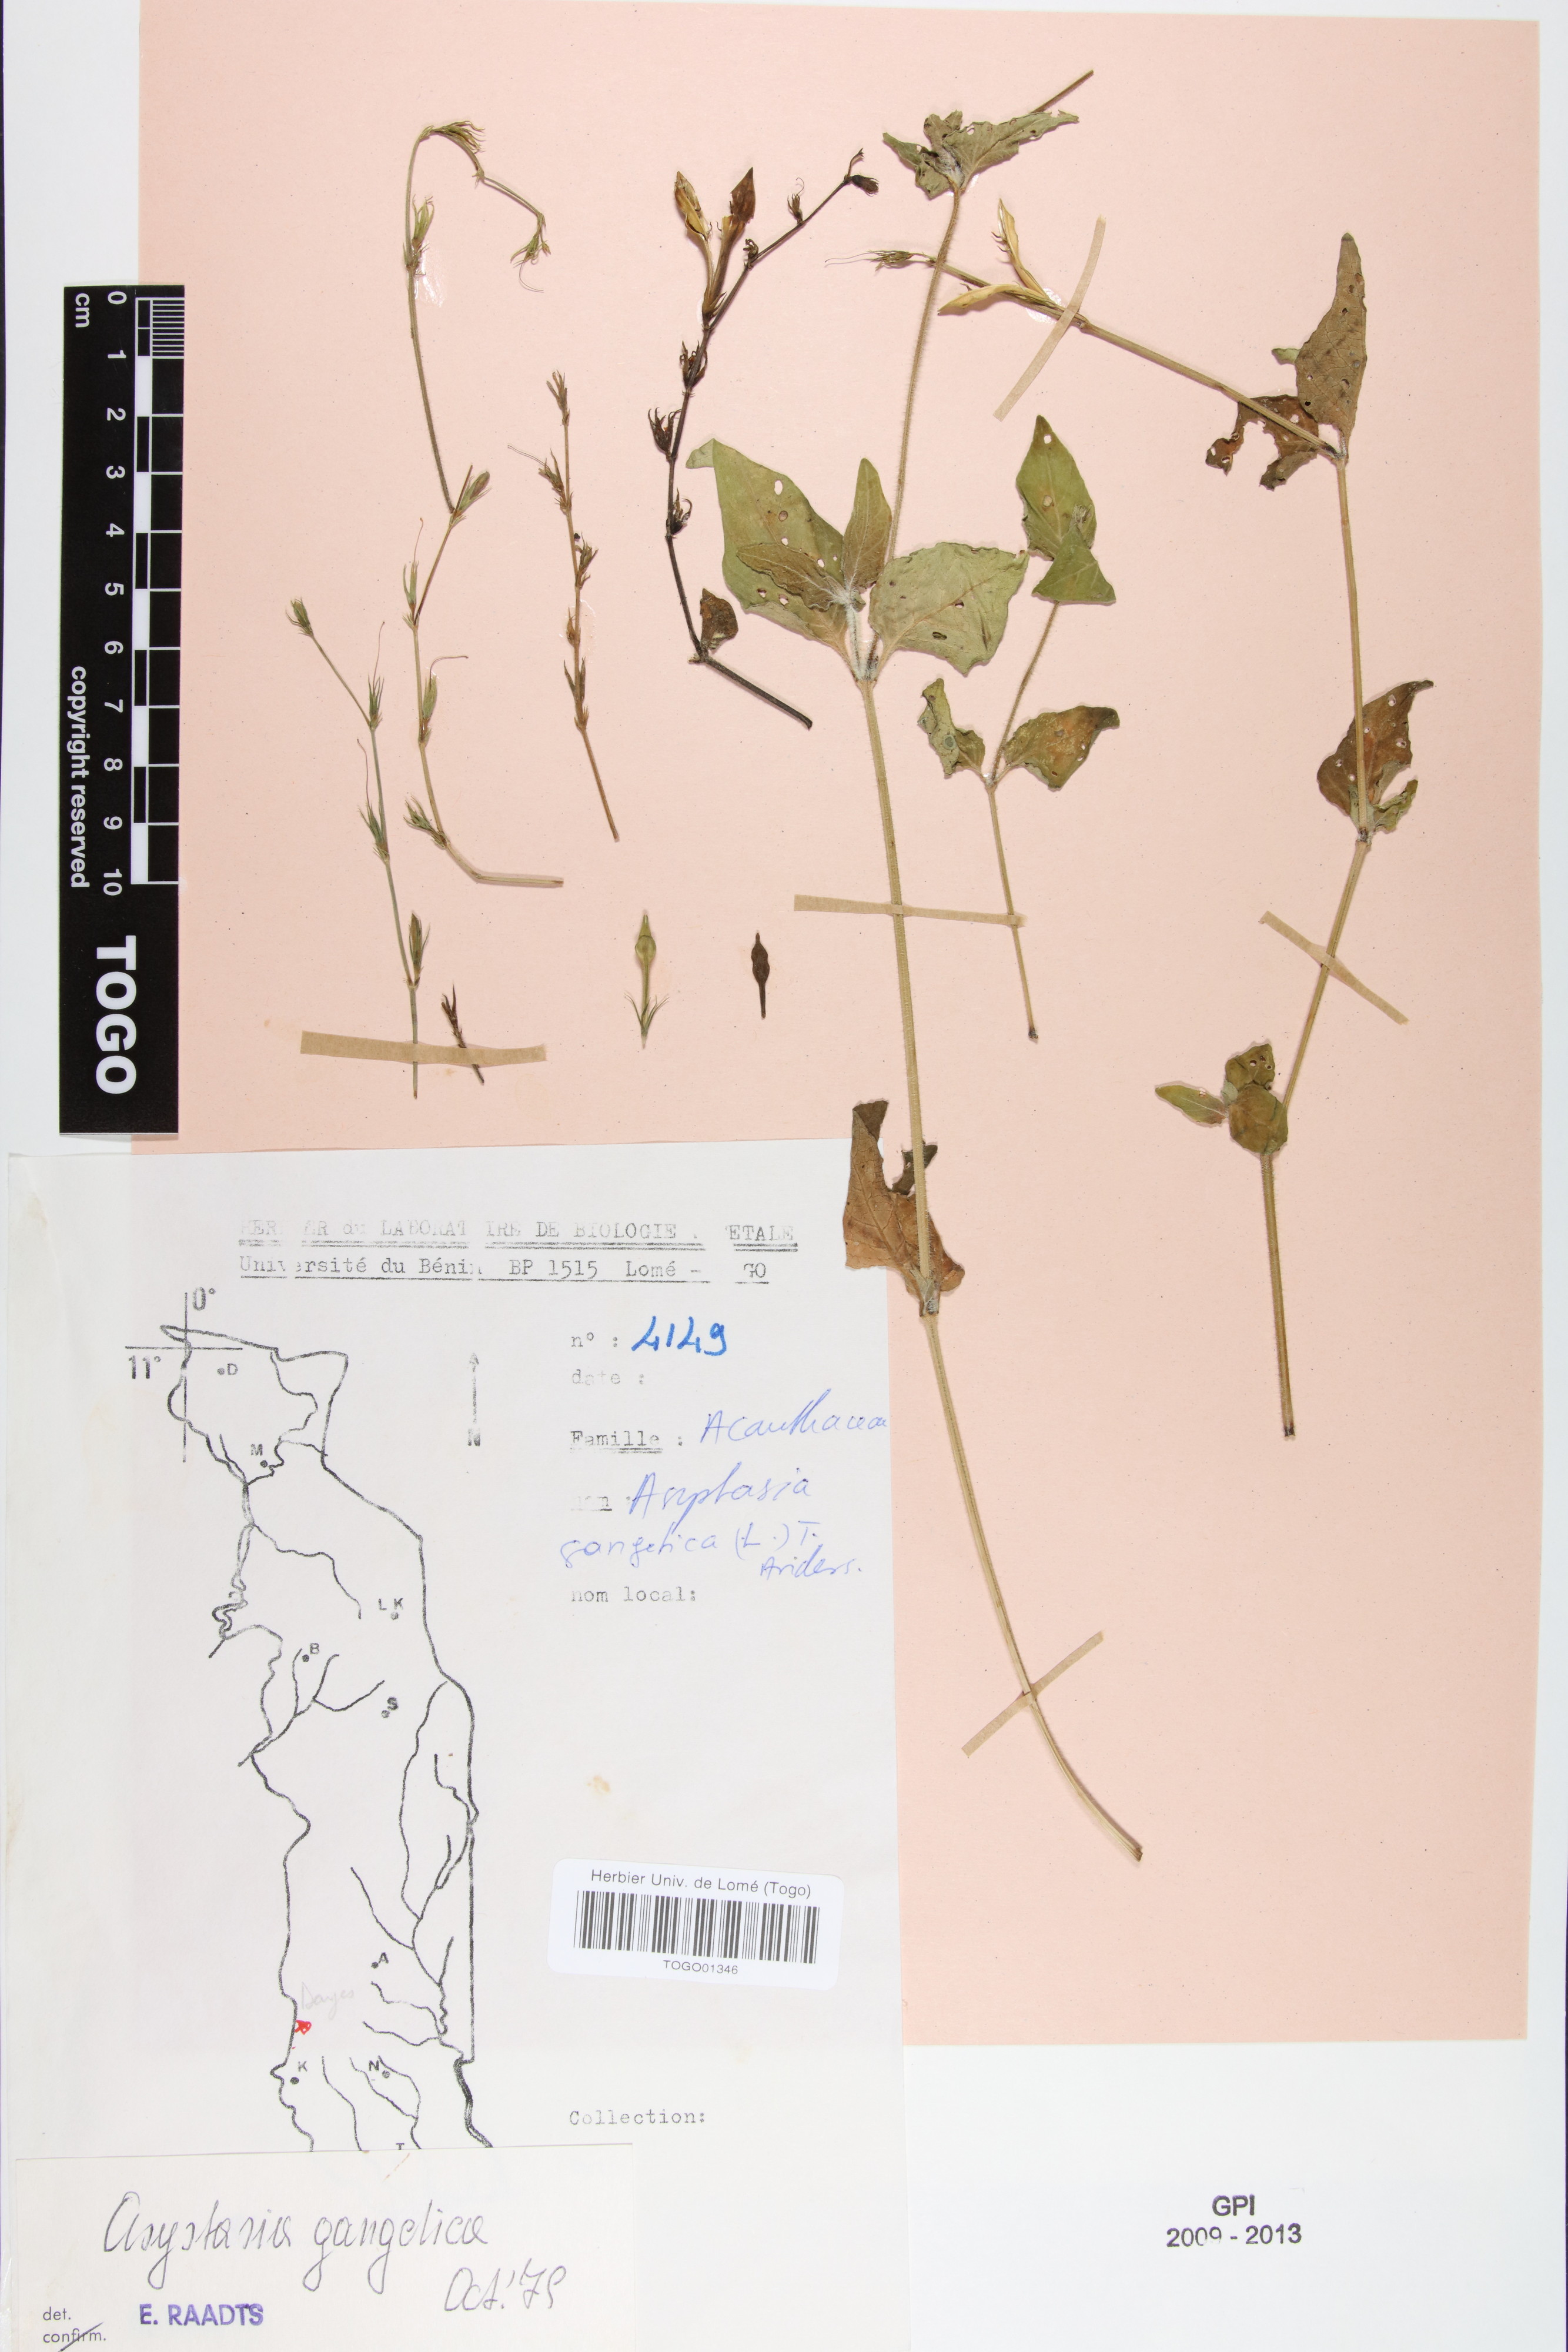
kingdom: Plantae
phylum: Tracheophyta
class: Magnoliopsida
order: Lamiales
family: Acanthaceae
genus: Asystasia
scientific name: Asystasia gangetica
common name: Chinese violet
